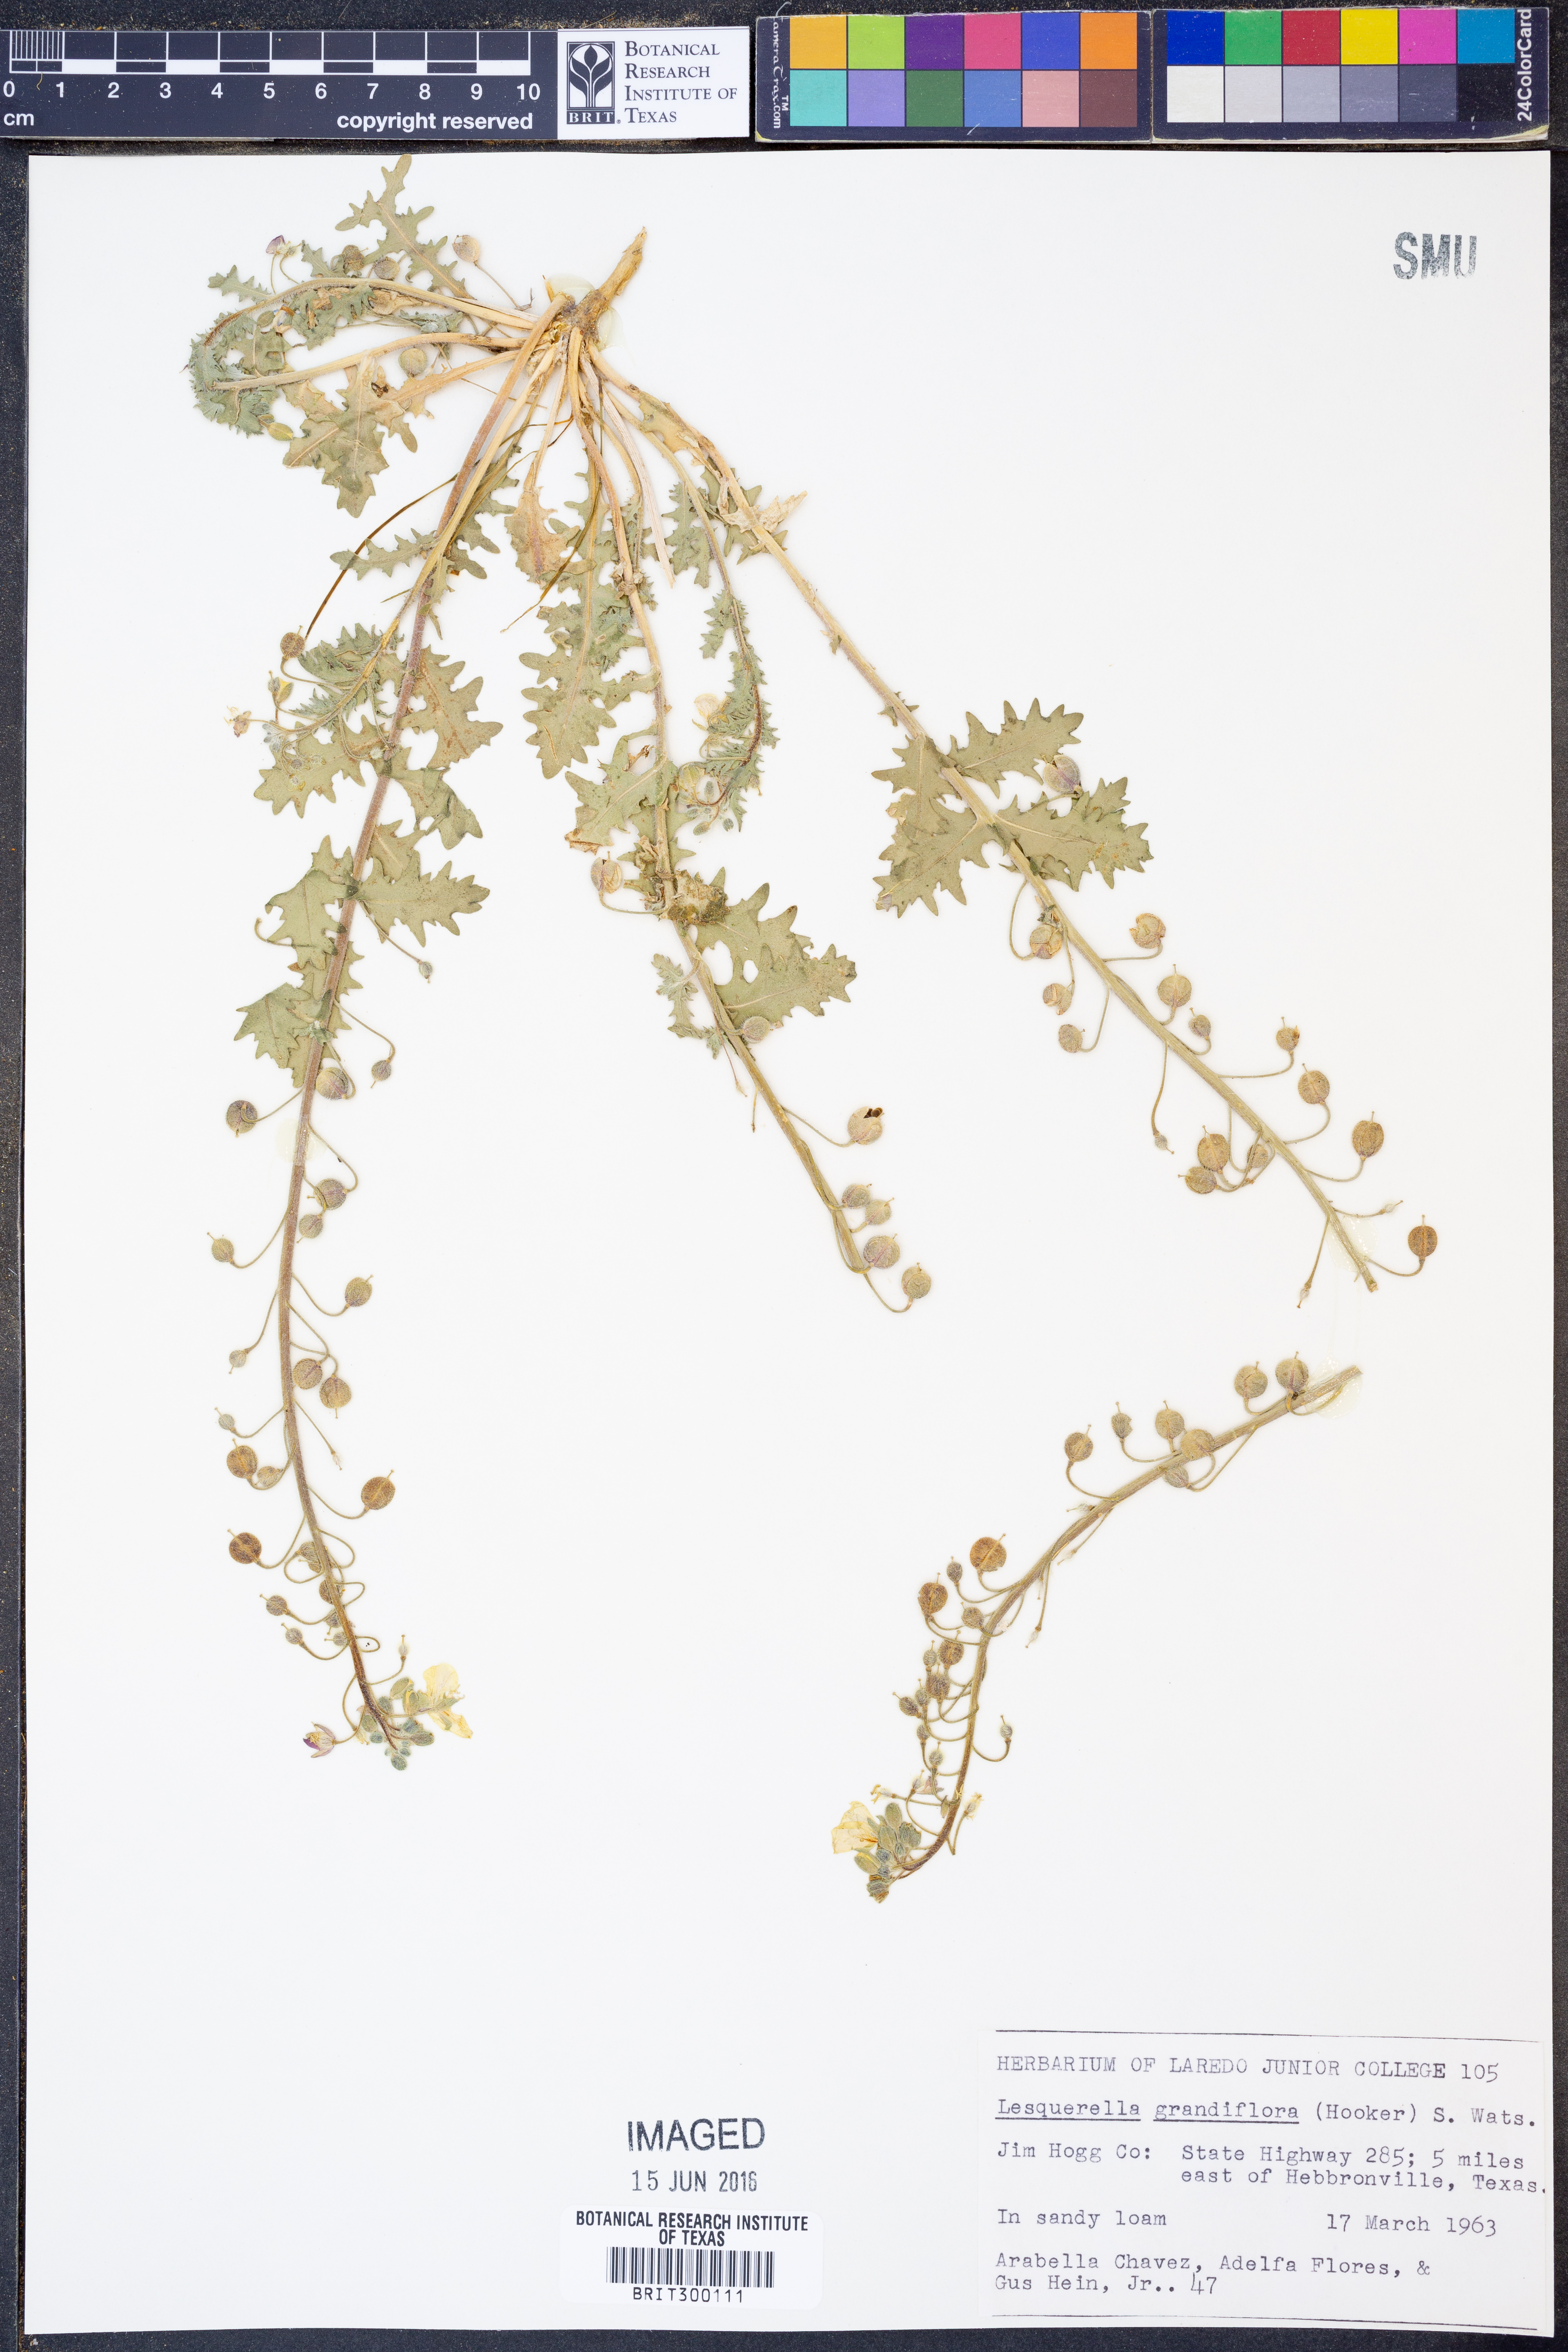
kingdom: Plantae
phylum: Tracheophyta
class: Magnoliopsida
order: Brassicales
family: Brassicaceae
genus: Paysonia
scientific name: Paysonia grandiflora
